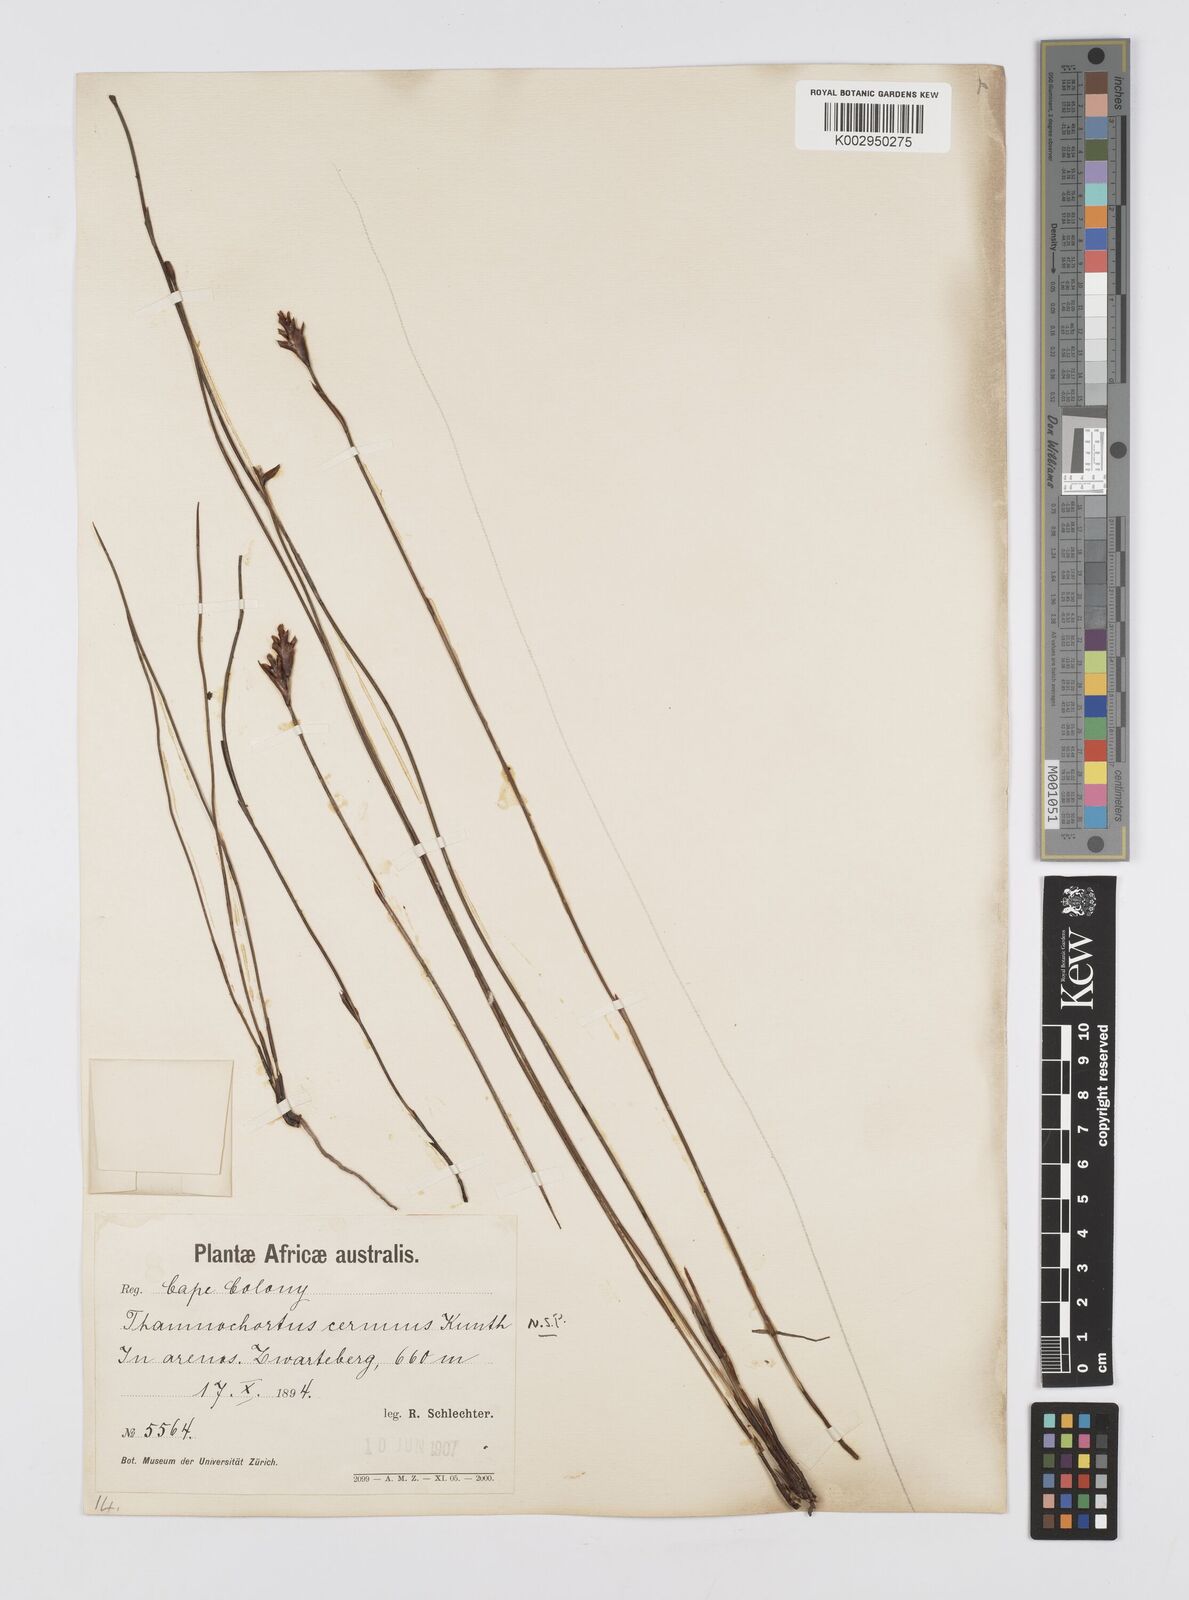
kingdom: Plantae
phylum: Tracheophyta
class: Liliopsida
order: Poales
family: Restionaceae
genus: Staberoha
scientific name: Staberoha cernua
